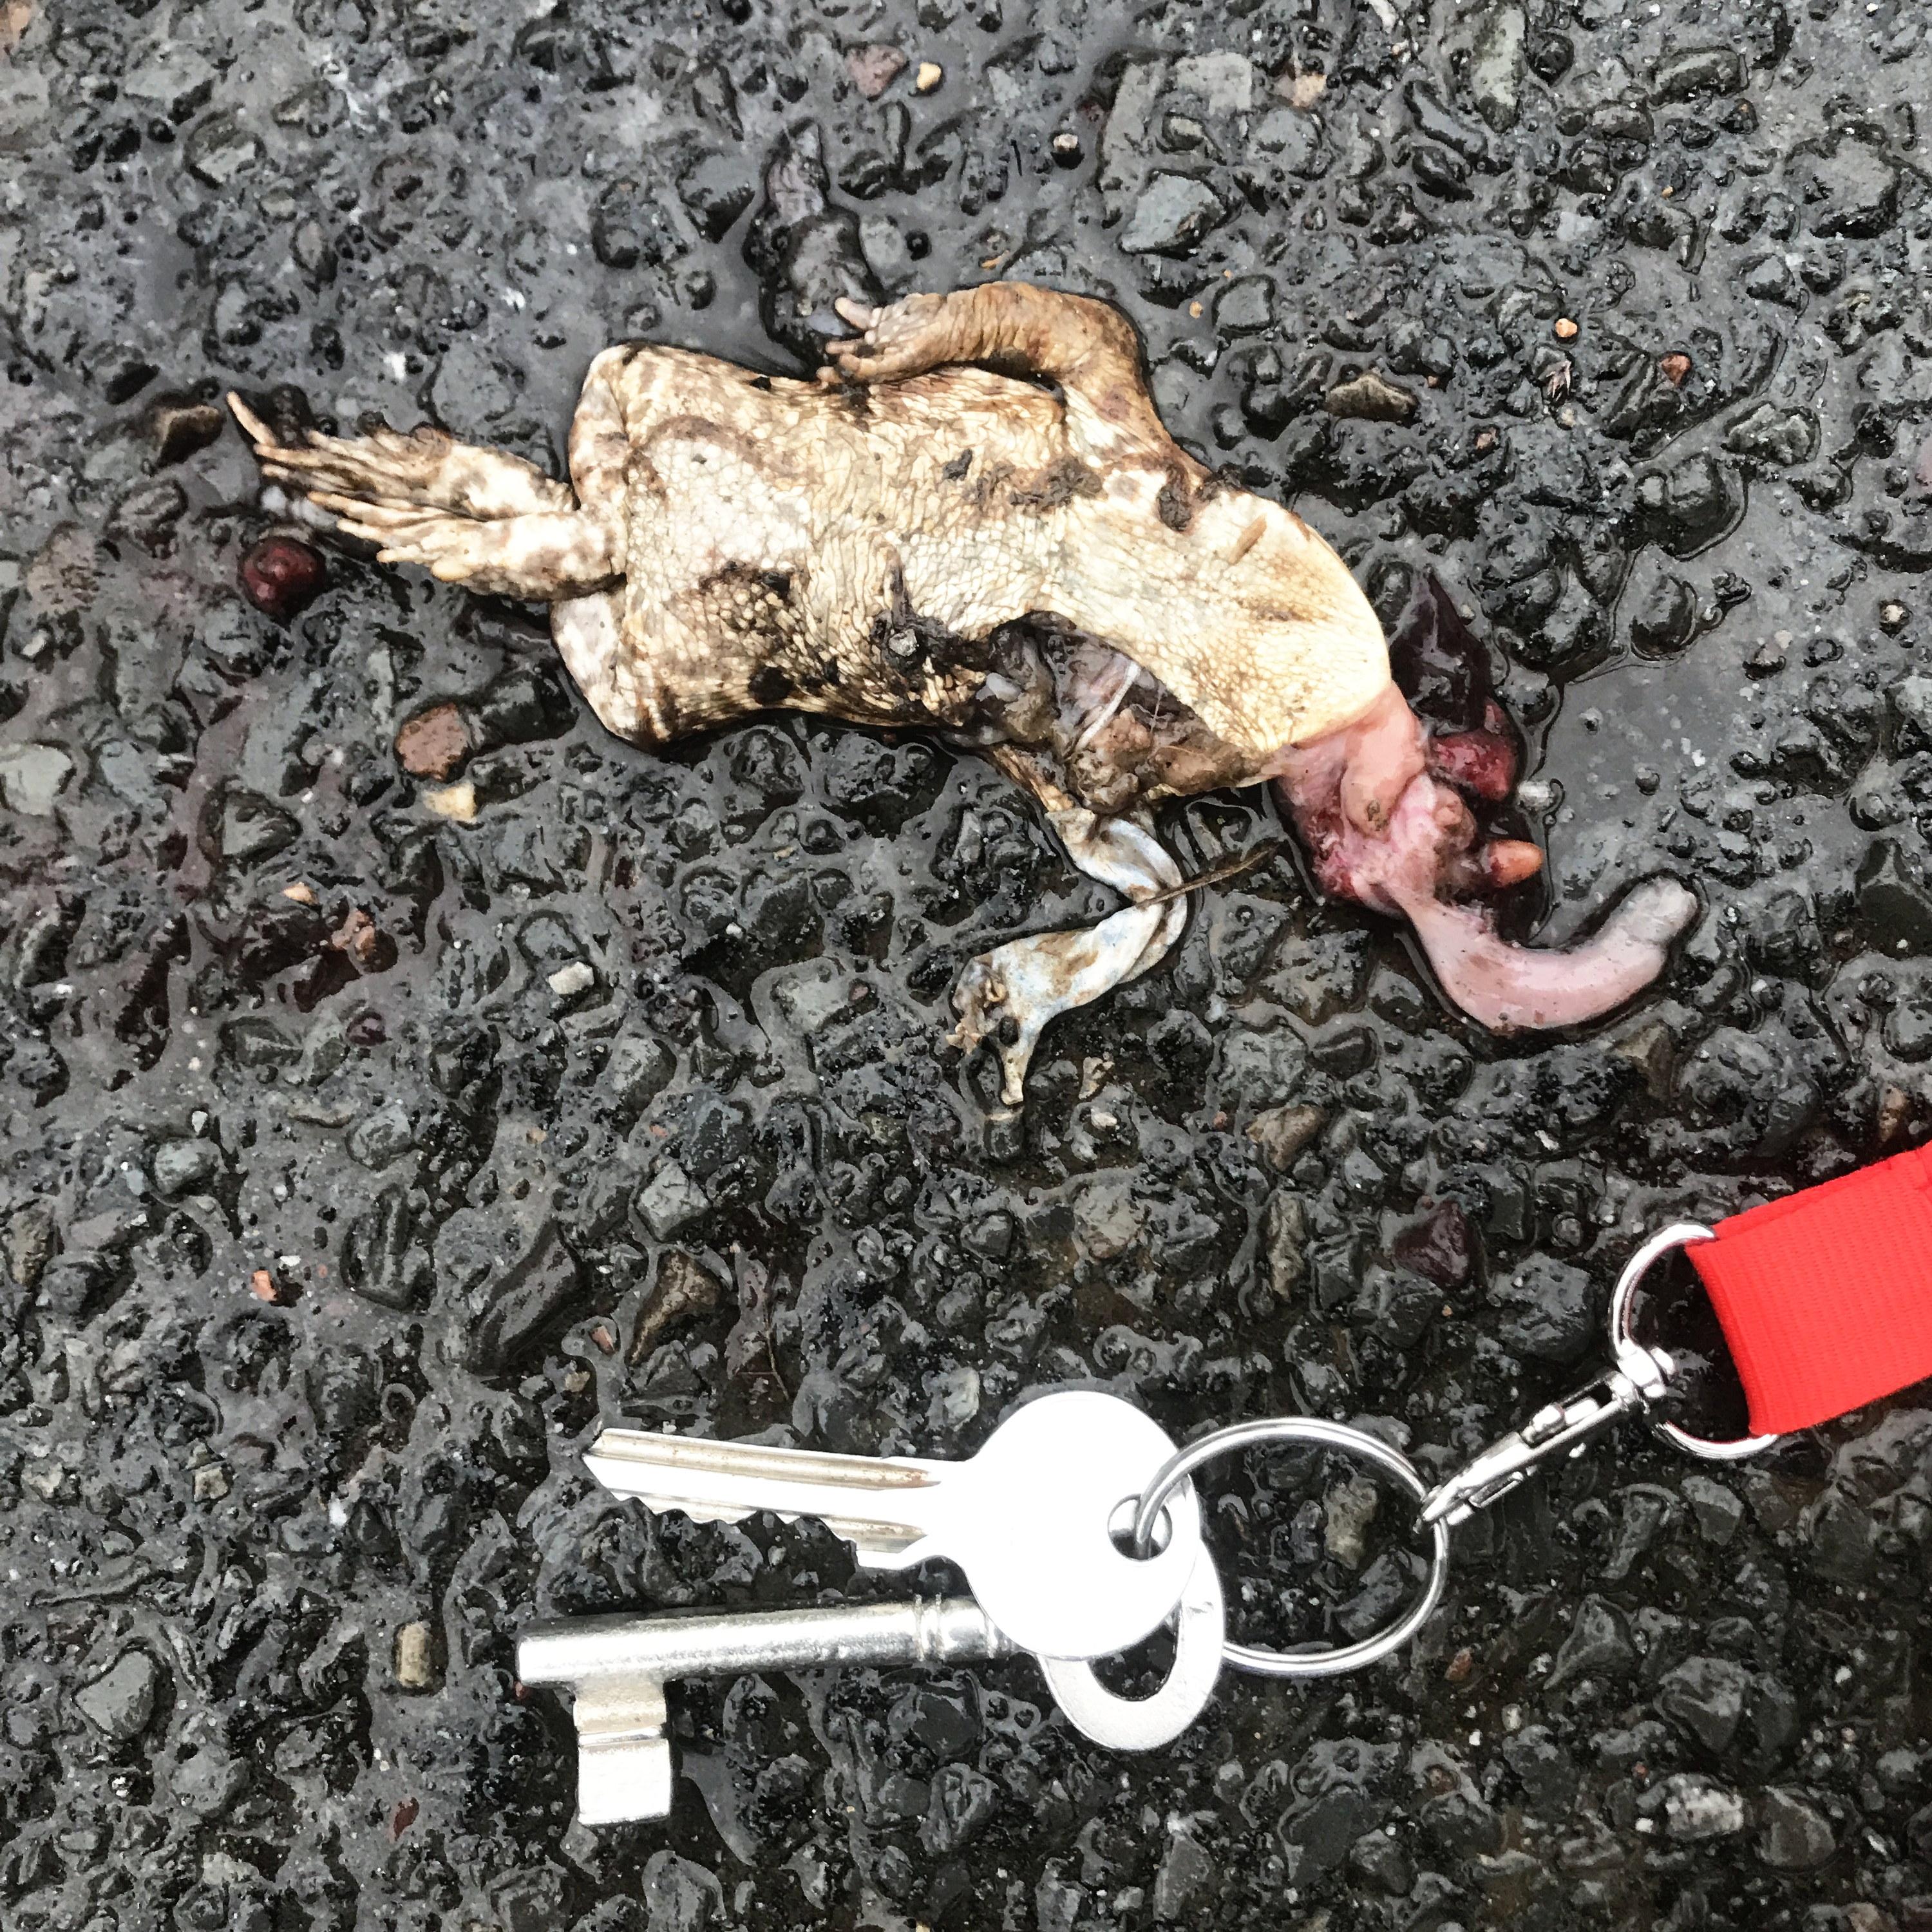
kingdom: Animalia
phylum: Chordata
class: Amphibia
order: Anura
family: Bufonidae
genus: Bufo
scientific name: Bufo bufo
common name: Common toad
